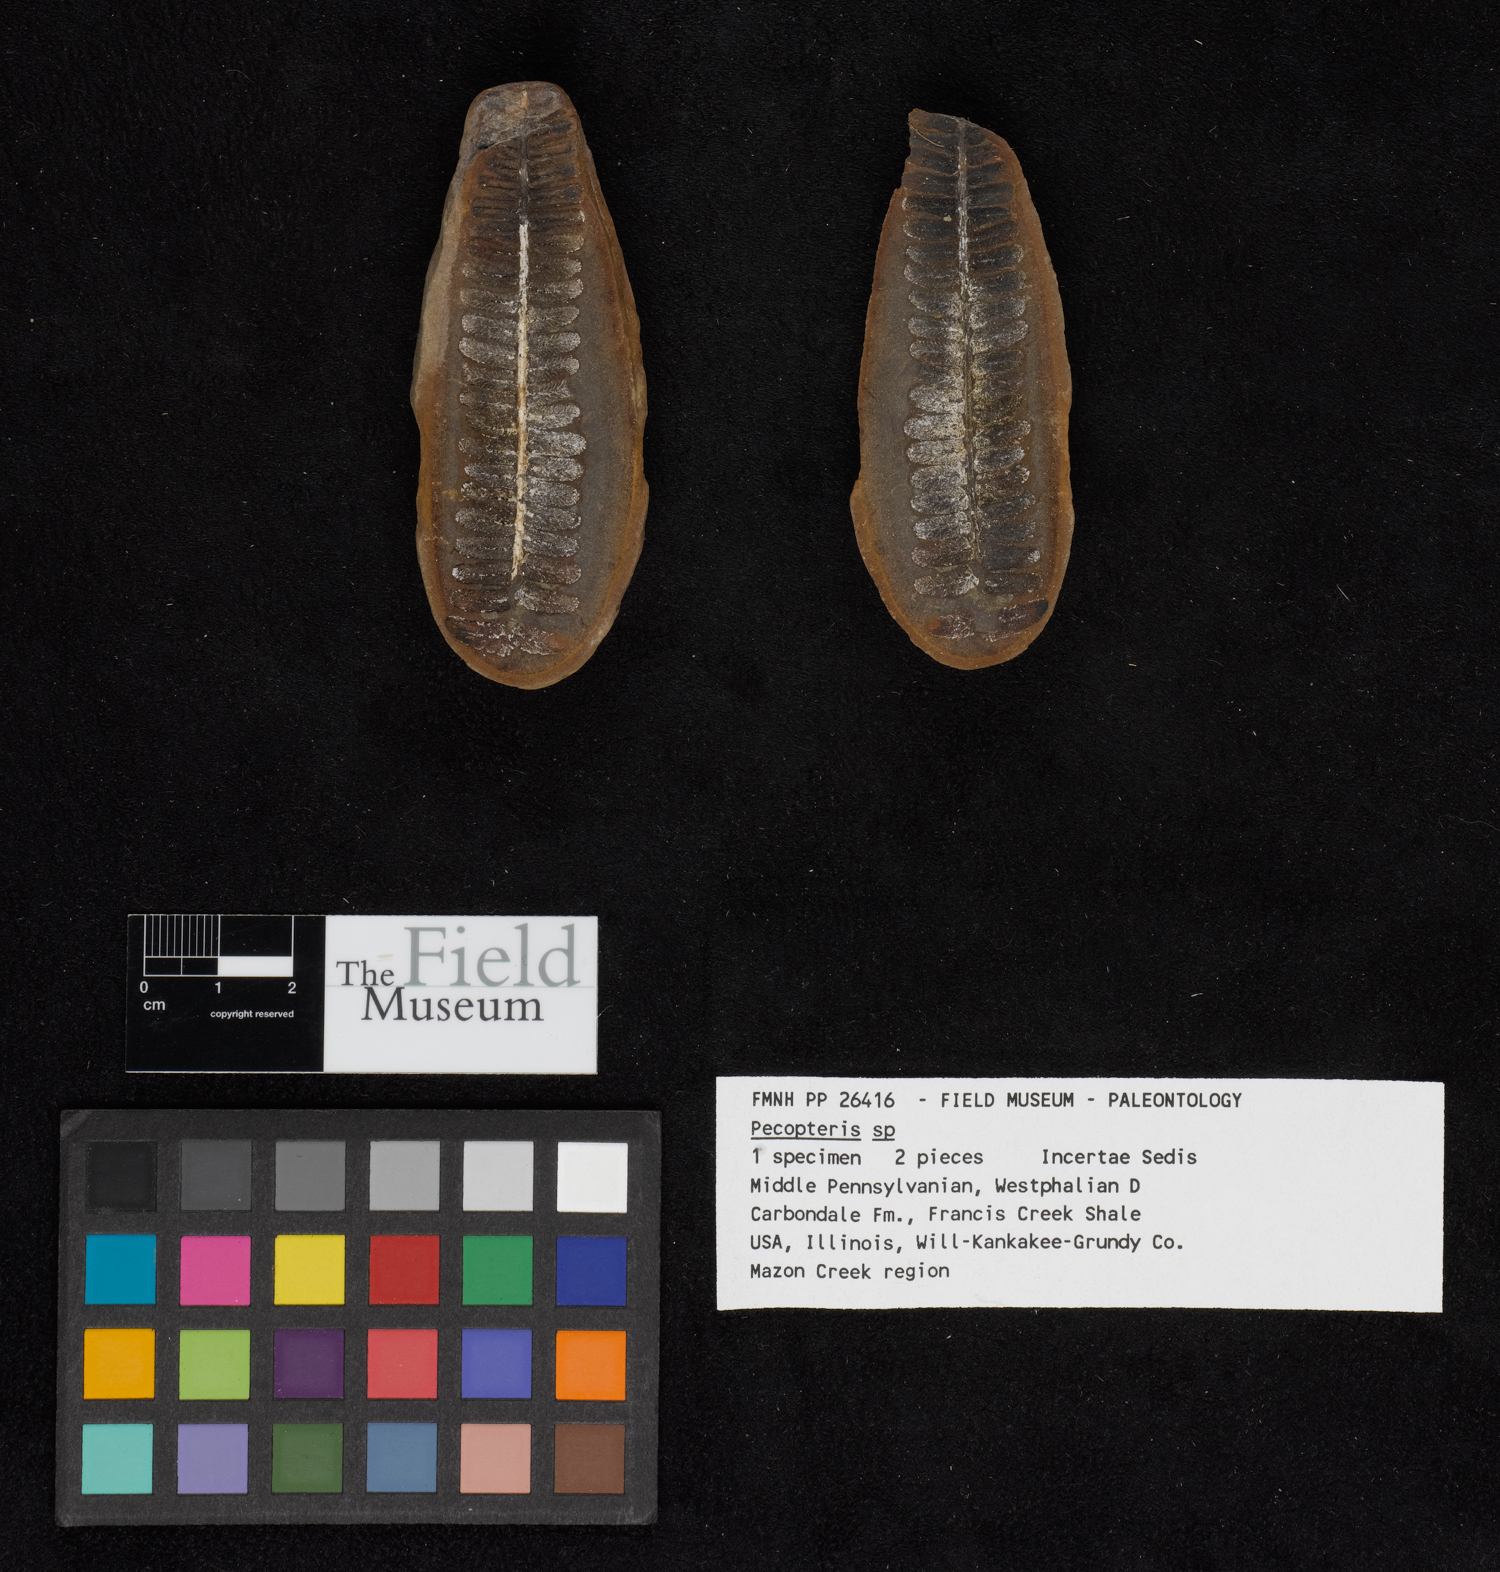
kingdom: Plantae
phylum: Tracheophyta
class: Polypodiopsida
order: Marattiales
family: Asterothecaceae
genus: Pecopteris
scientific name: Pecopteris
